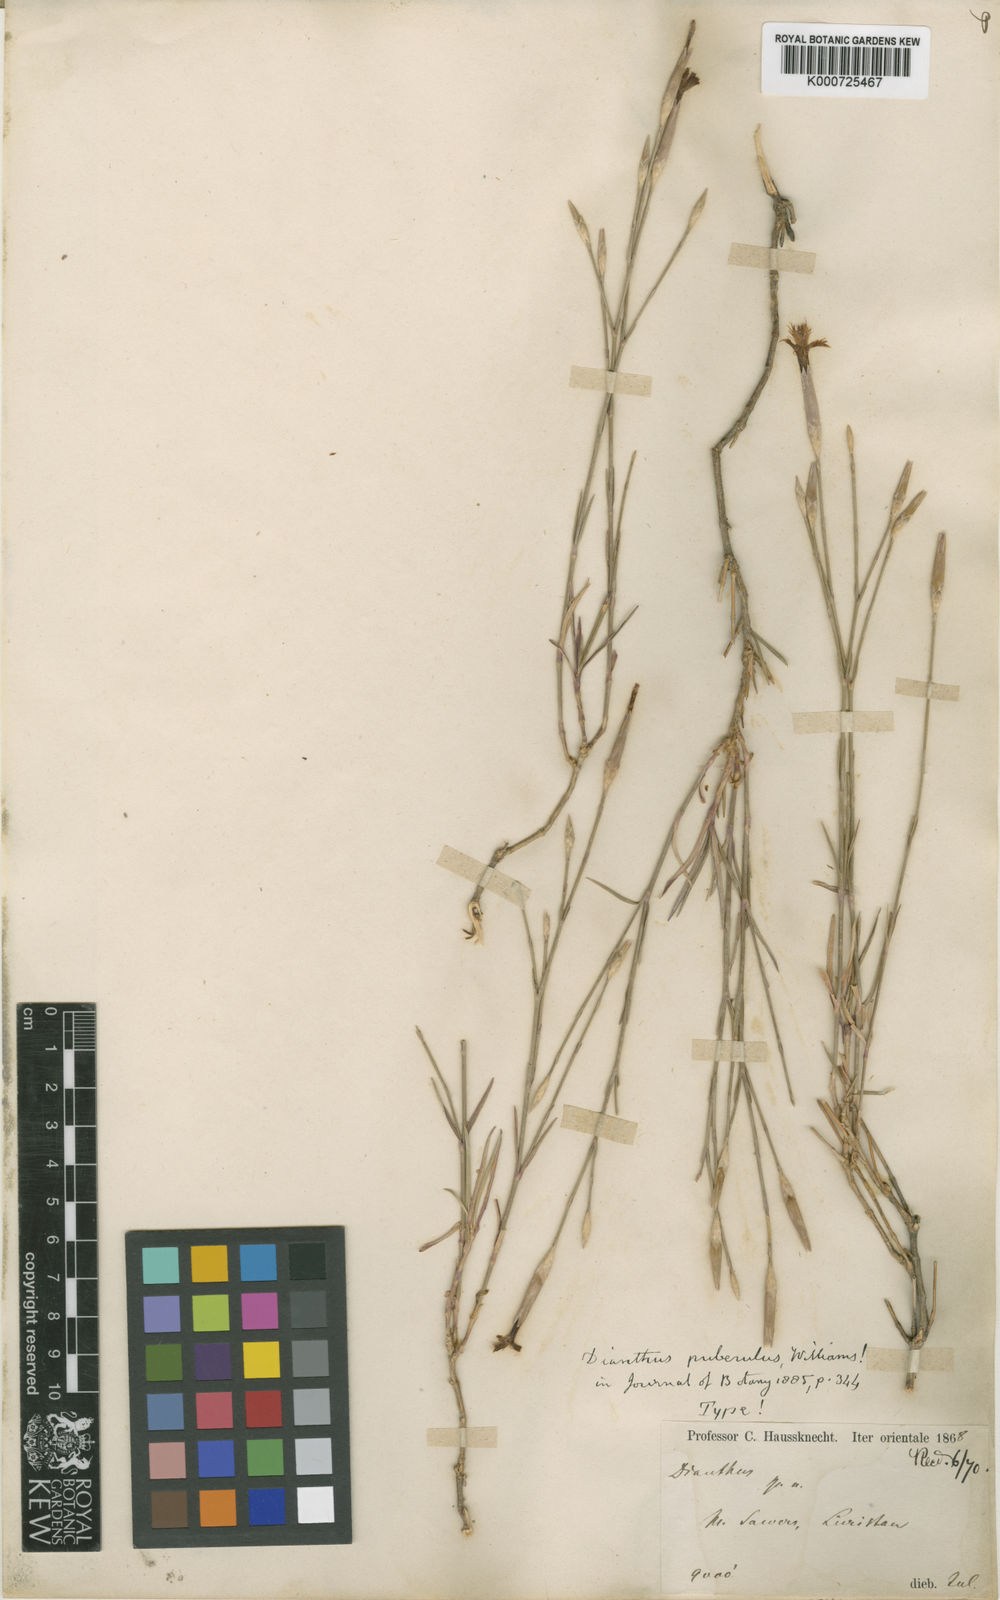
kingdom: Plantae
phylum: Tracheophyta
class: Magnoliopsida
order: Caryophyllales
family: Caryophyllaceae
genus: Dianthus
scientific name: Dianthus orientalis
